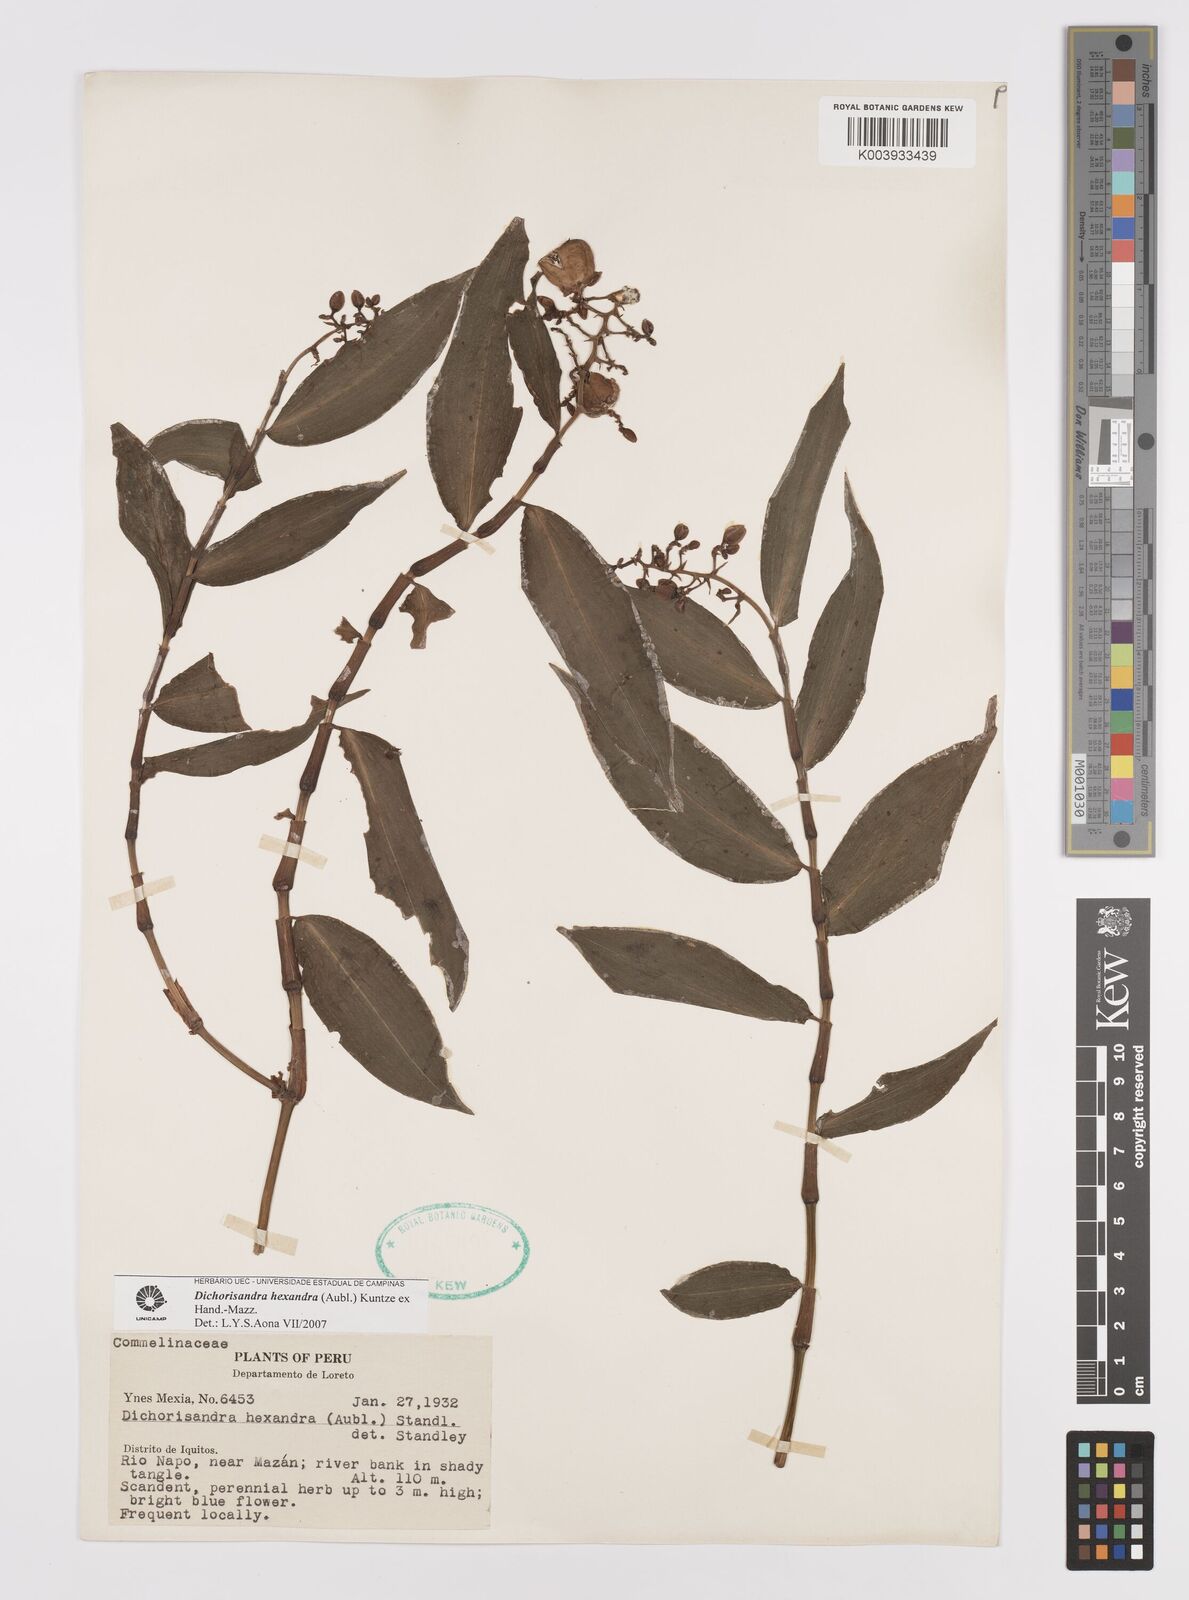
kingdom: Plantae
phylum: Tracheophyta
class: Liliopsida
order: Commelinales
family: Commelinaceae
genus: Dichorisandra
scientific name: Dichorisandra hexandra
